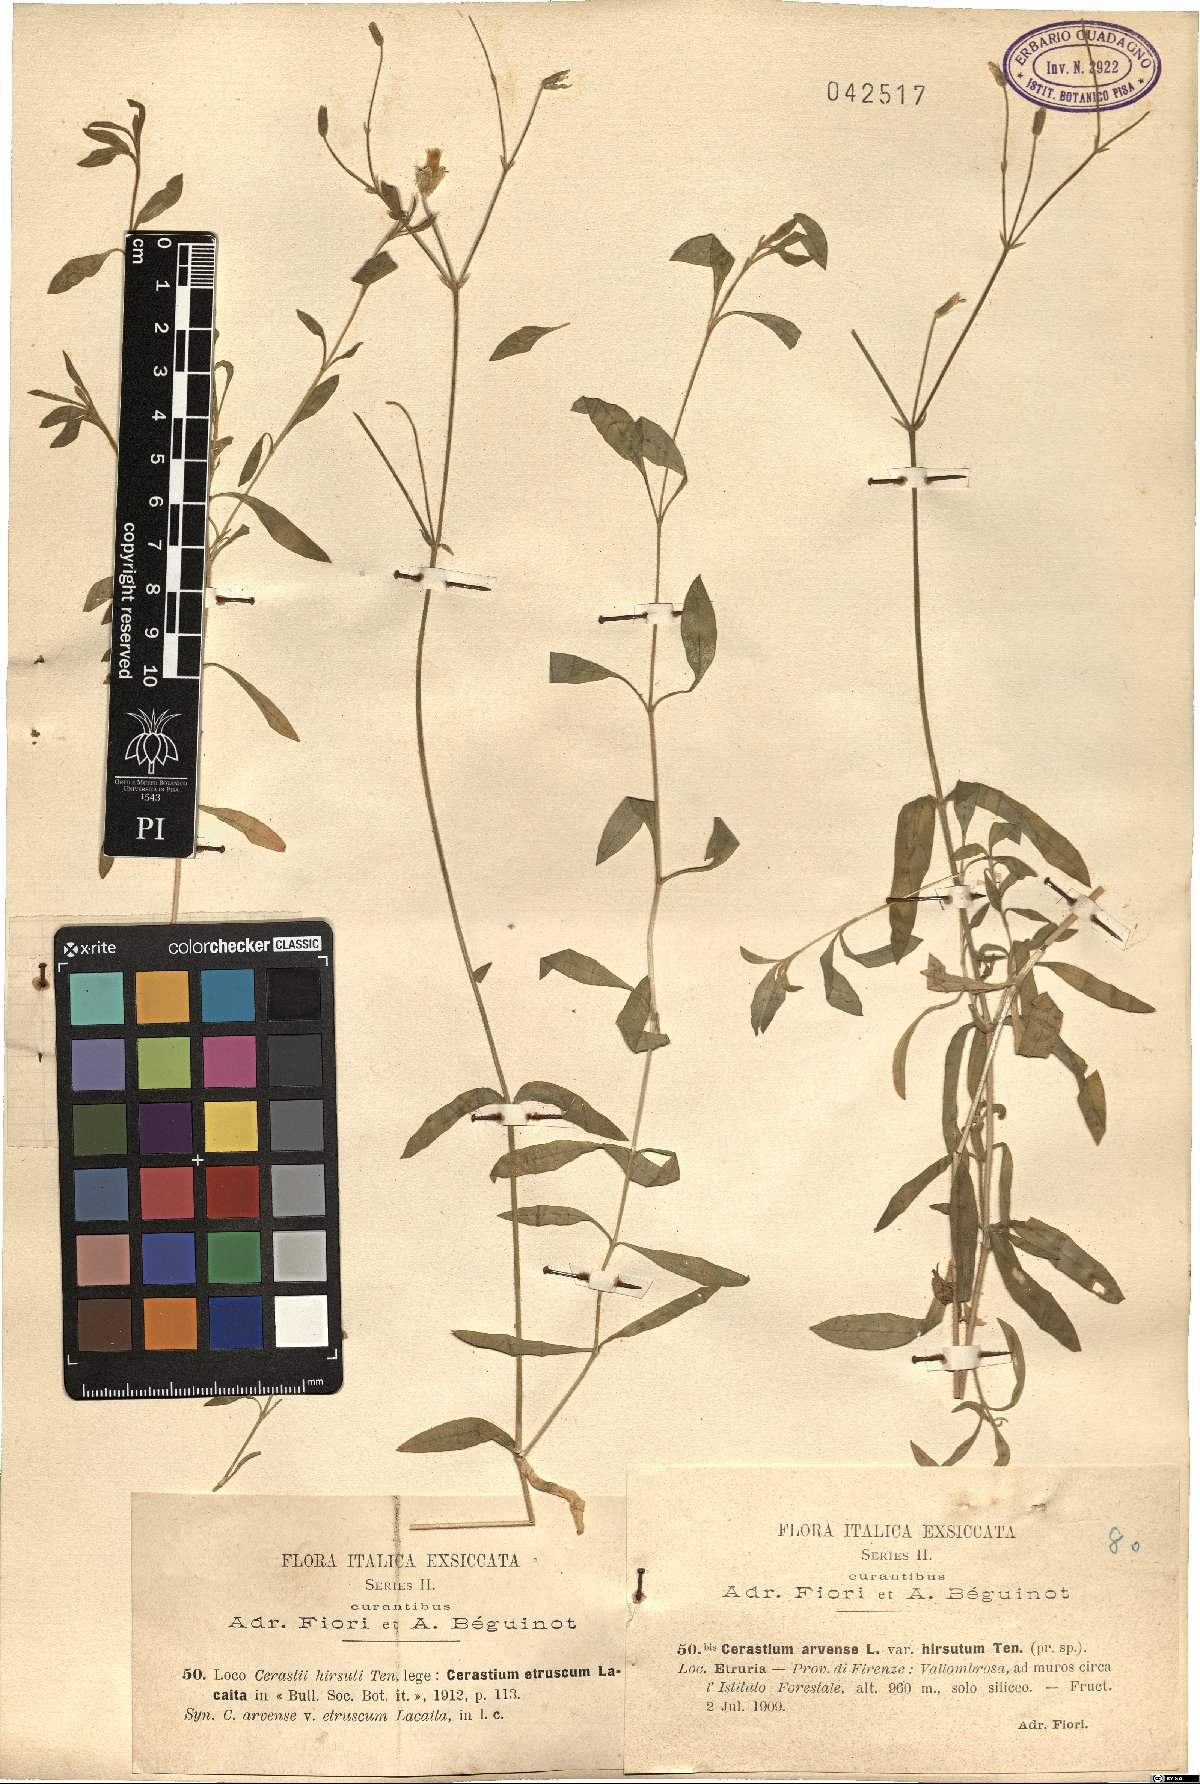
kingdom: Plantae
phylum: Tracheophyta
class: Magnoliopsida
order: Caryophyllales
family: Caryophyllaceae
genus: Cerastium
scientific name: Cerastium scaranii
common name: Italian mouse-ear
